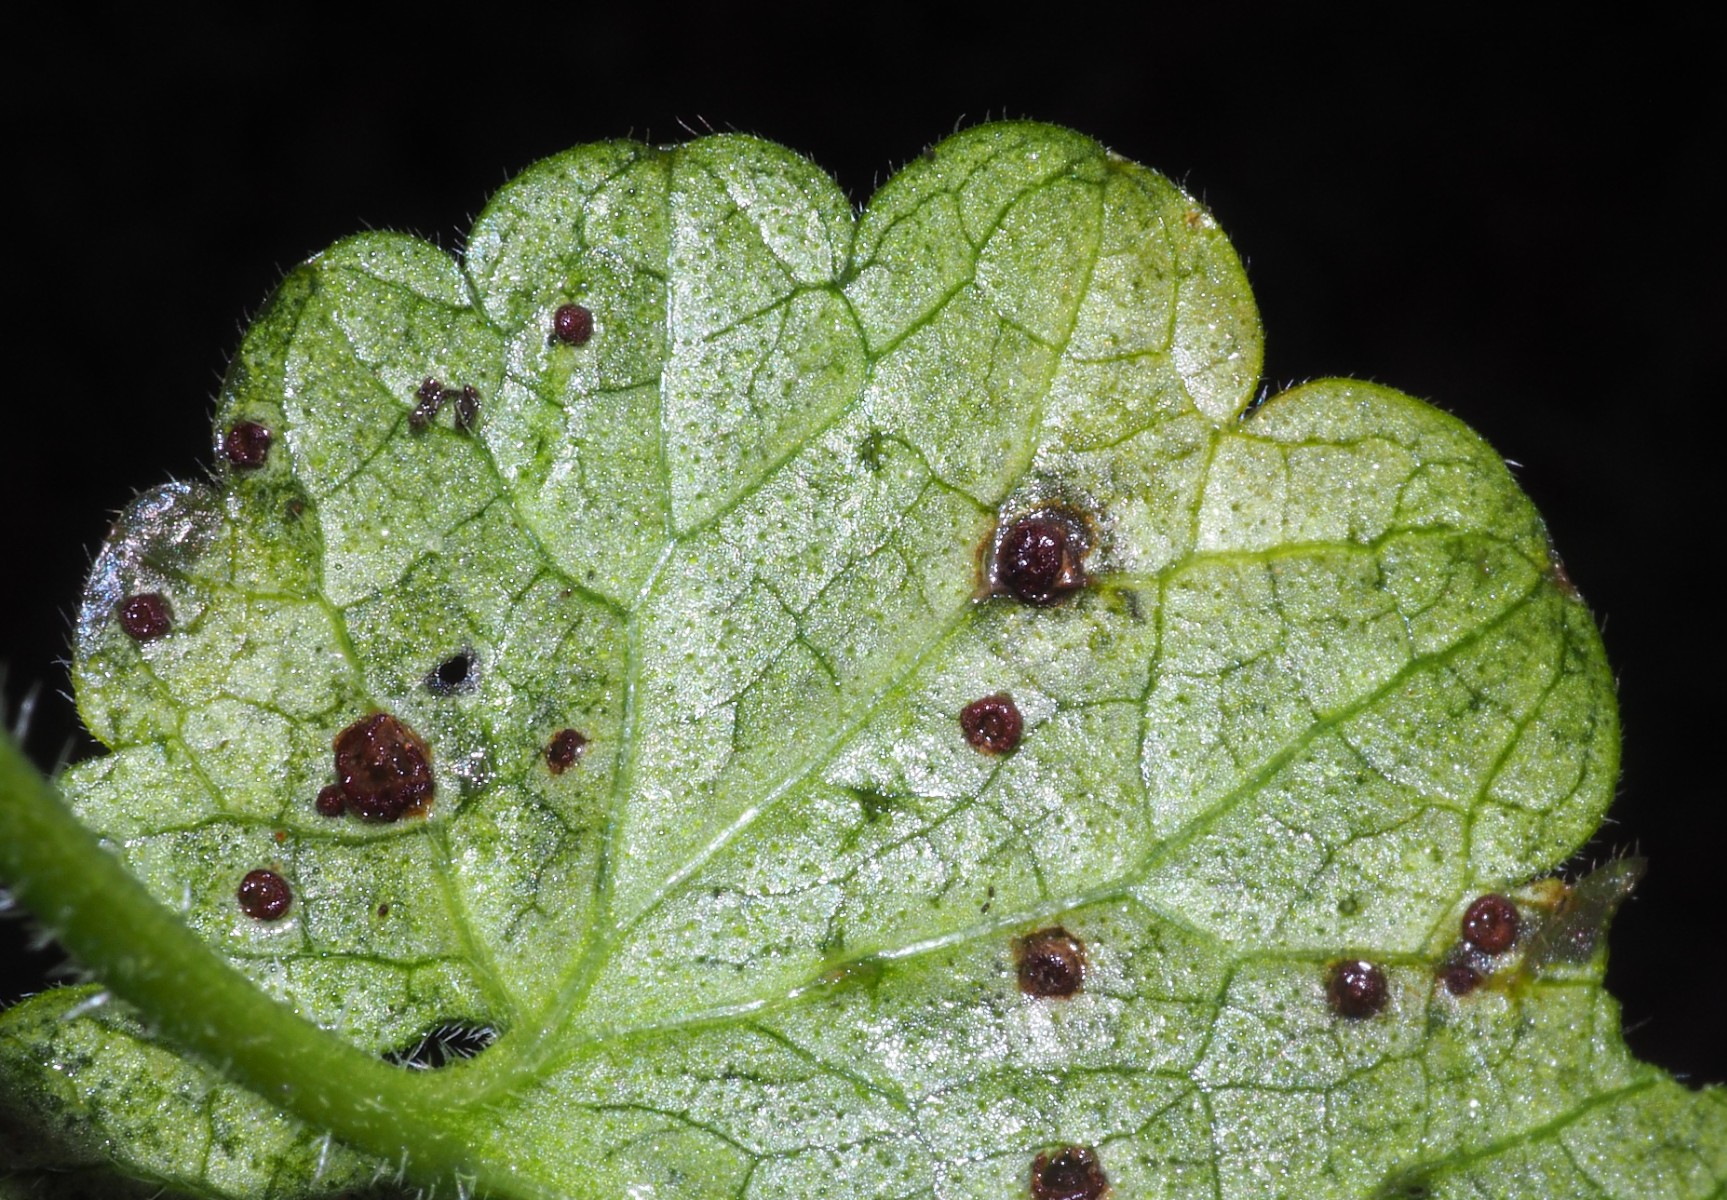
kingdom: Fungi
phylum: Basidiomycota
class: Pucciniomycetes
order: Pucciniales
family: Pucciniaceae
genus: Puccinia
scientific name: Puccinia glechomatis
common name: Ground ivy rust
